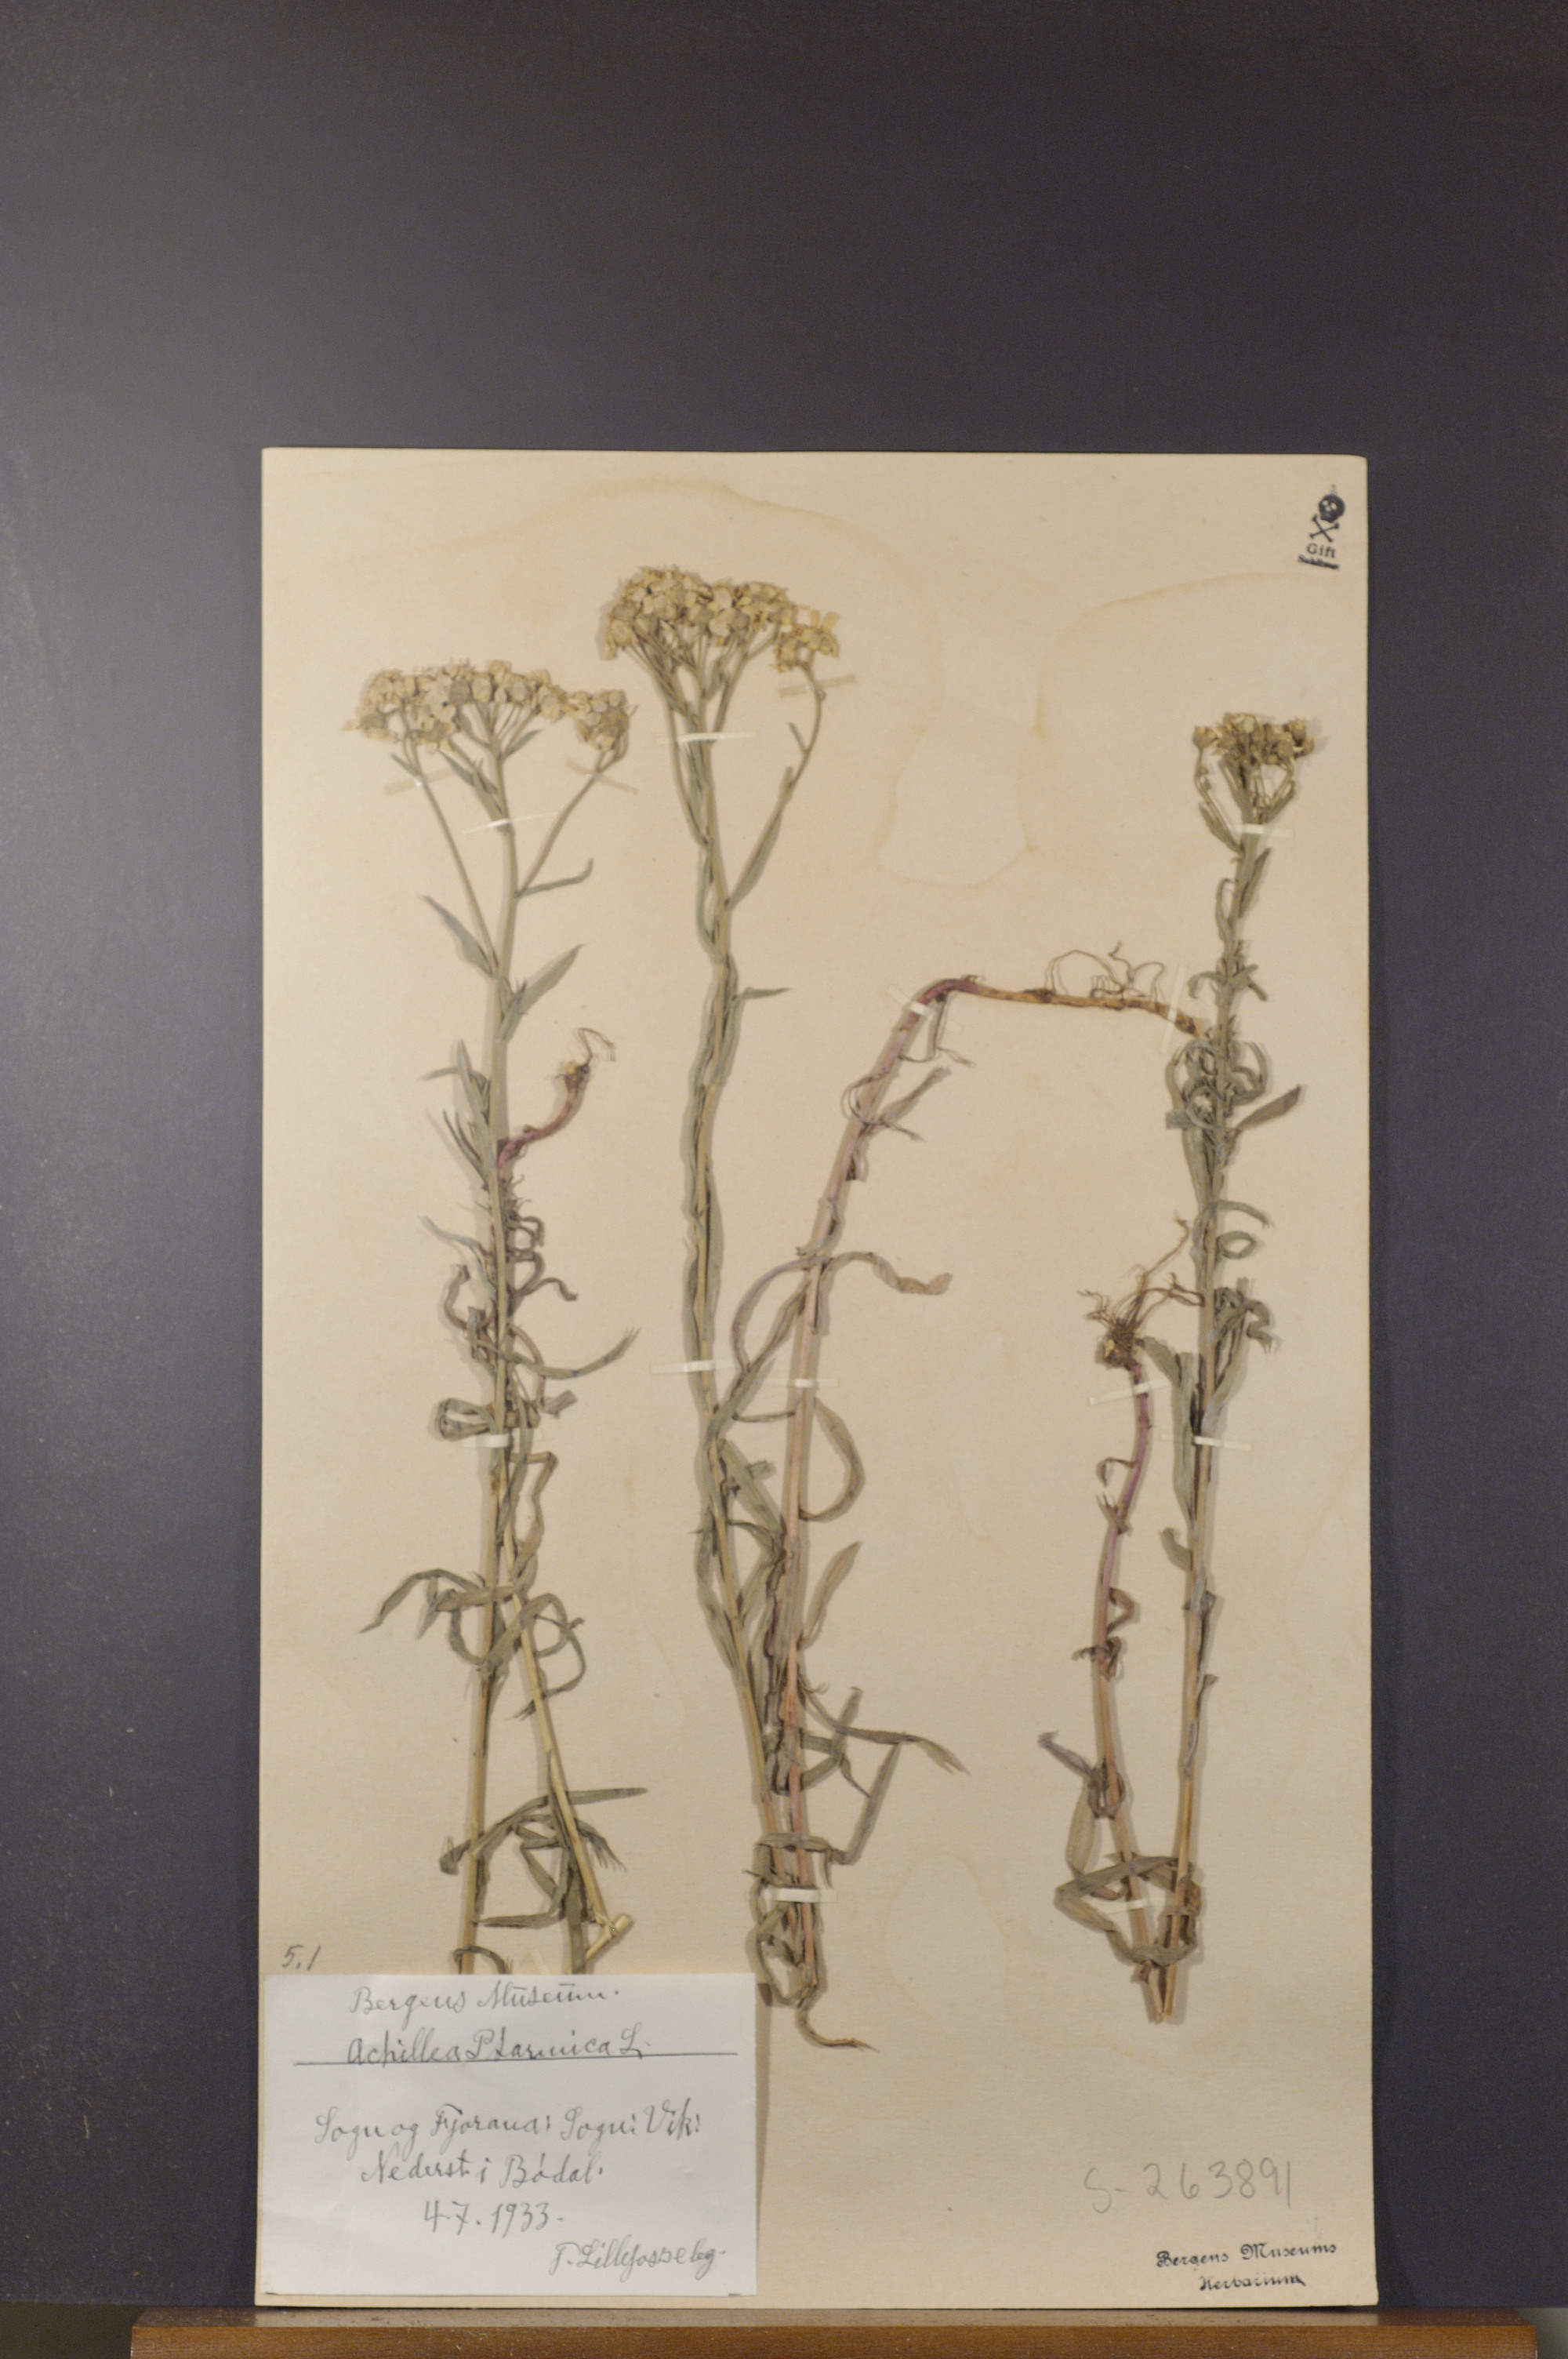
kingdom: Plantae
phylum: Tracheophyta
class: Magnoliopsida
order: Asterales
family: Asteraceae
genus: Achillea
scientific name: Achillea ptarmica
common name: Sneezeweed
